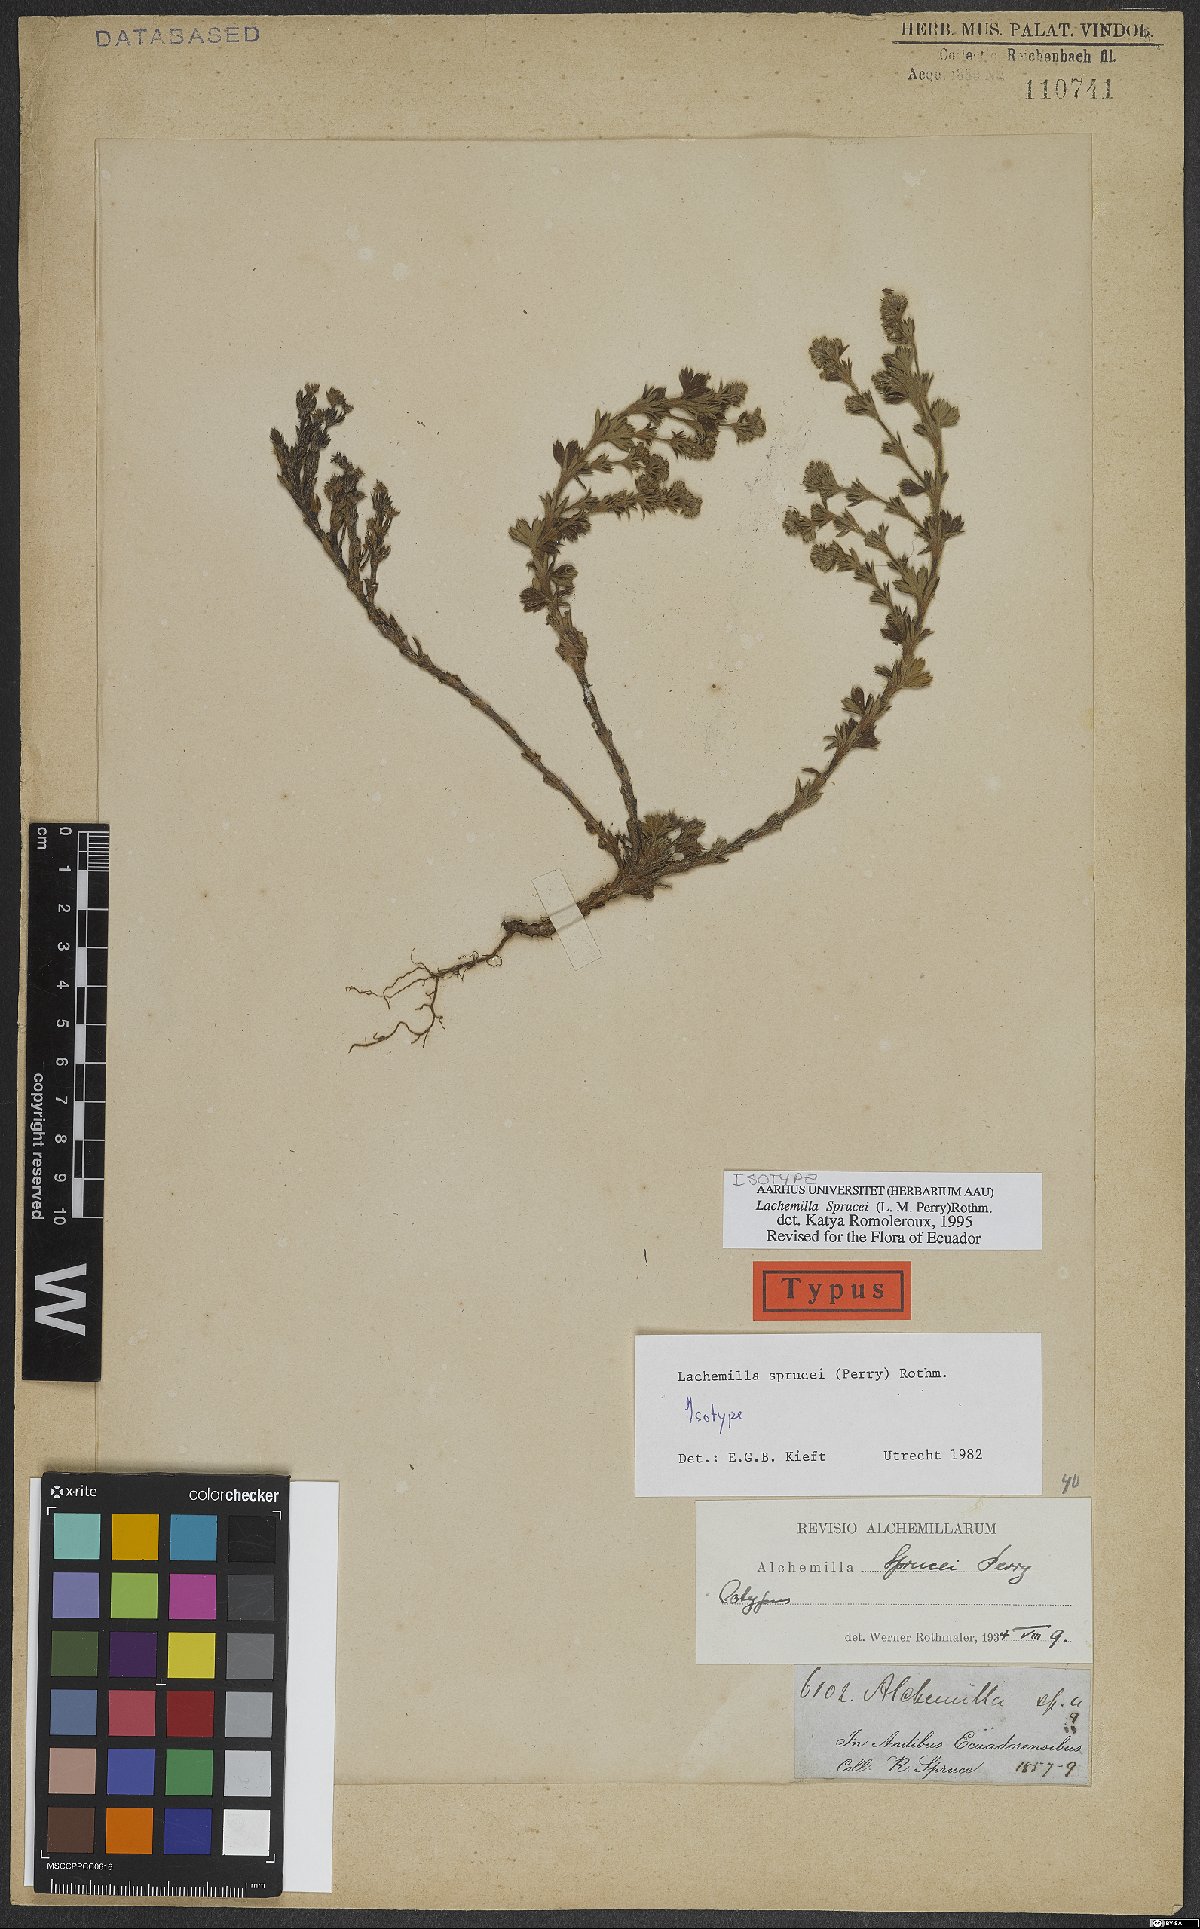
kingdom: Plantae
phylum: Tracheophyta
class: Magnoliopsida
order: Rosales
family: Rosaceae
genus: Lachemilla
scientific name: Lachemilla sibbaldiifolia
